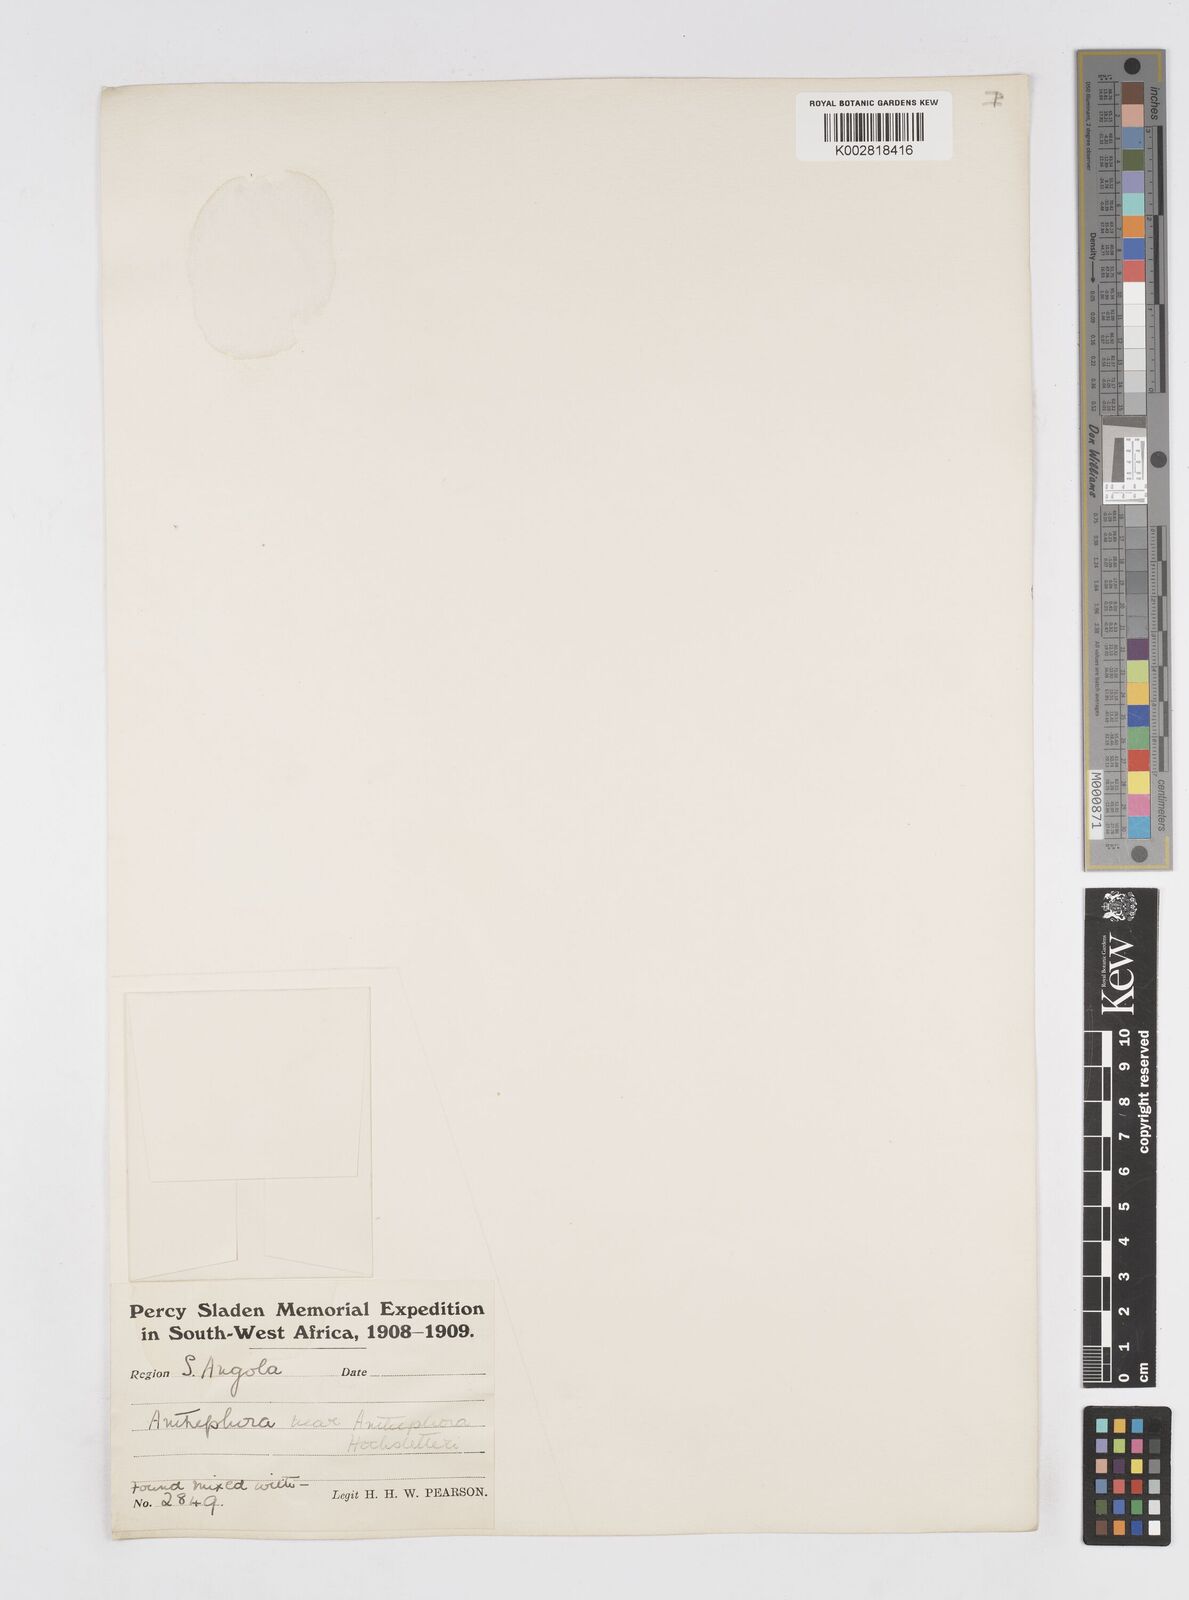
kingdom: Plantae
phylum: Tracheophyta
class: Liliopsida
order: Poales
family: Poaceae
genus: Anthephora
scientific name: Anthephora schinzii
